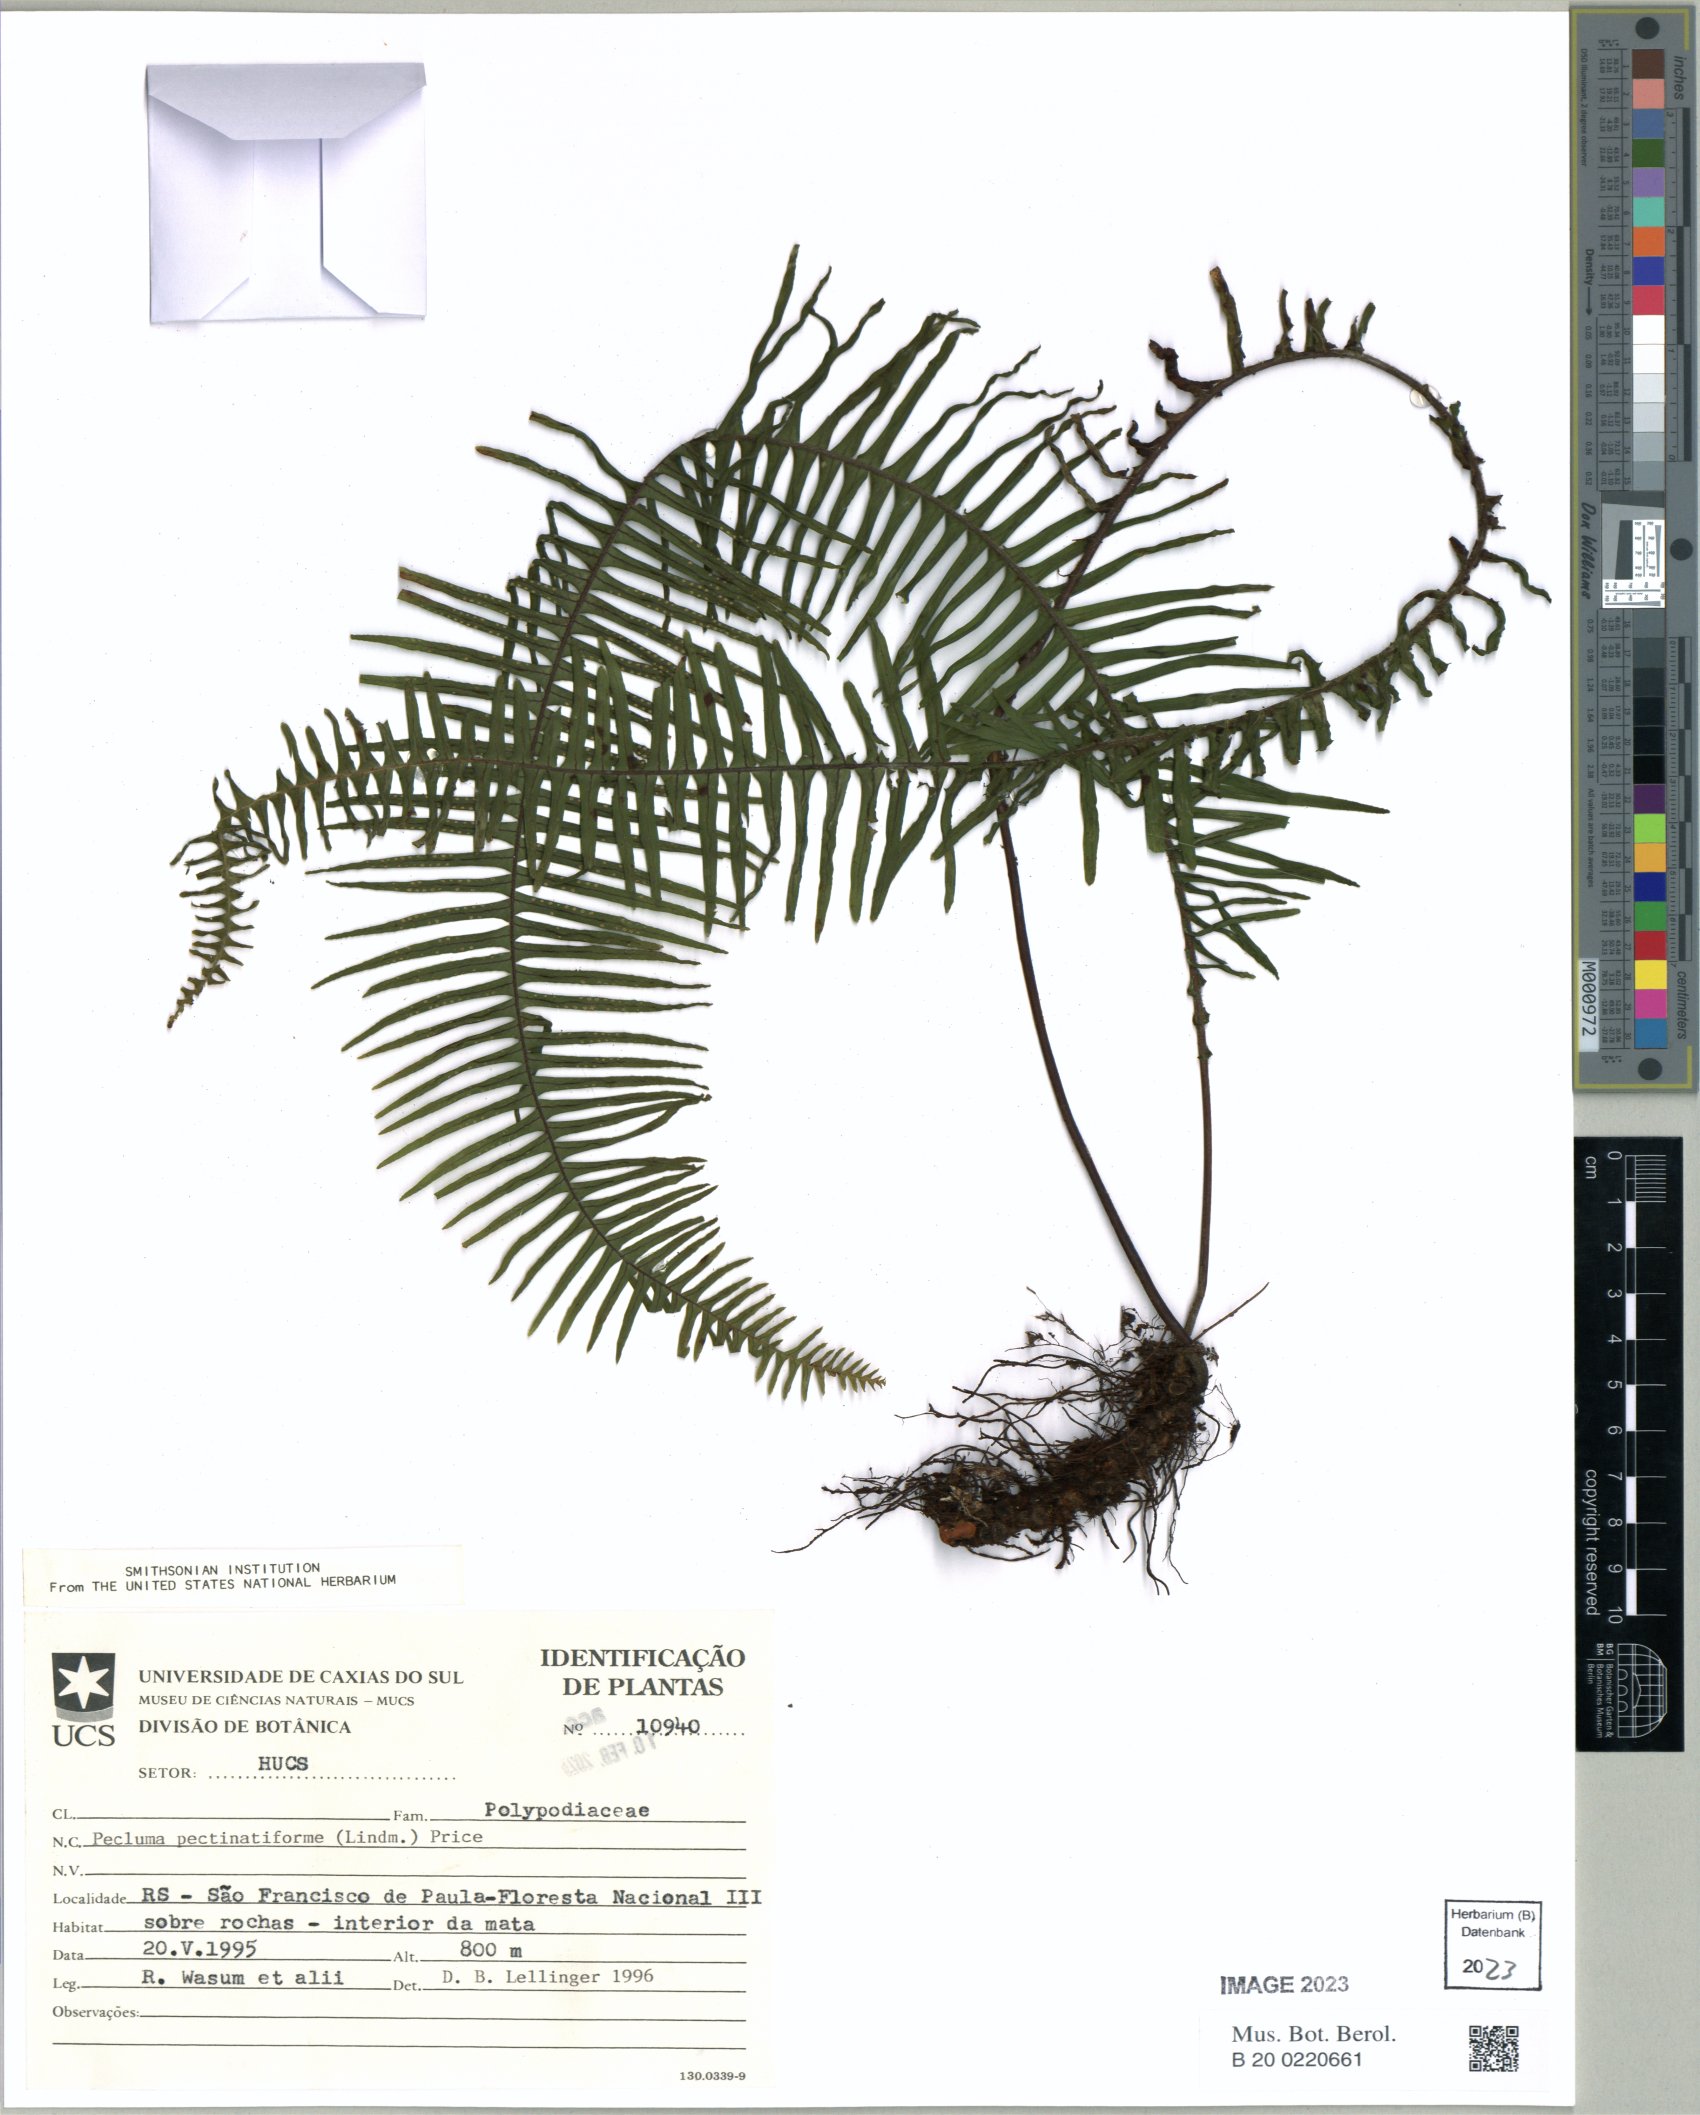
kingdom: Plantae
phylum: Tracheophyta
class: Polypodiopsida
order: Polypodiales
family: Polypodiaceae
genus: Pecluma
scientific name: Pecluma pectinatiformis
